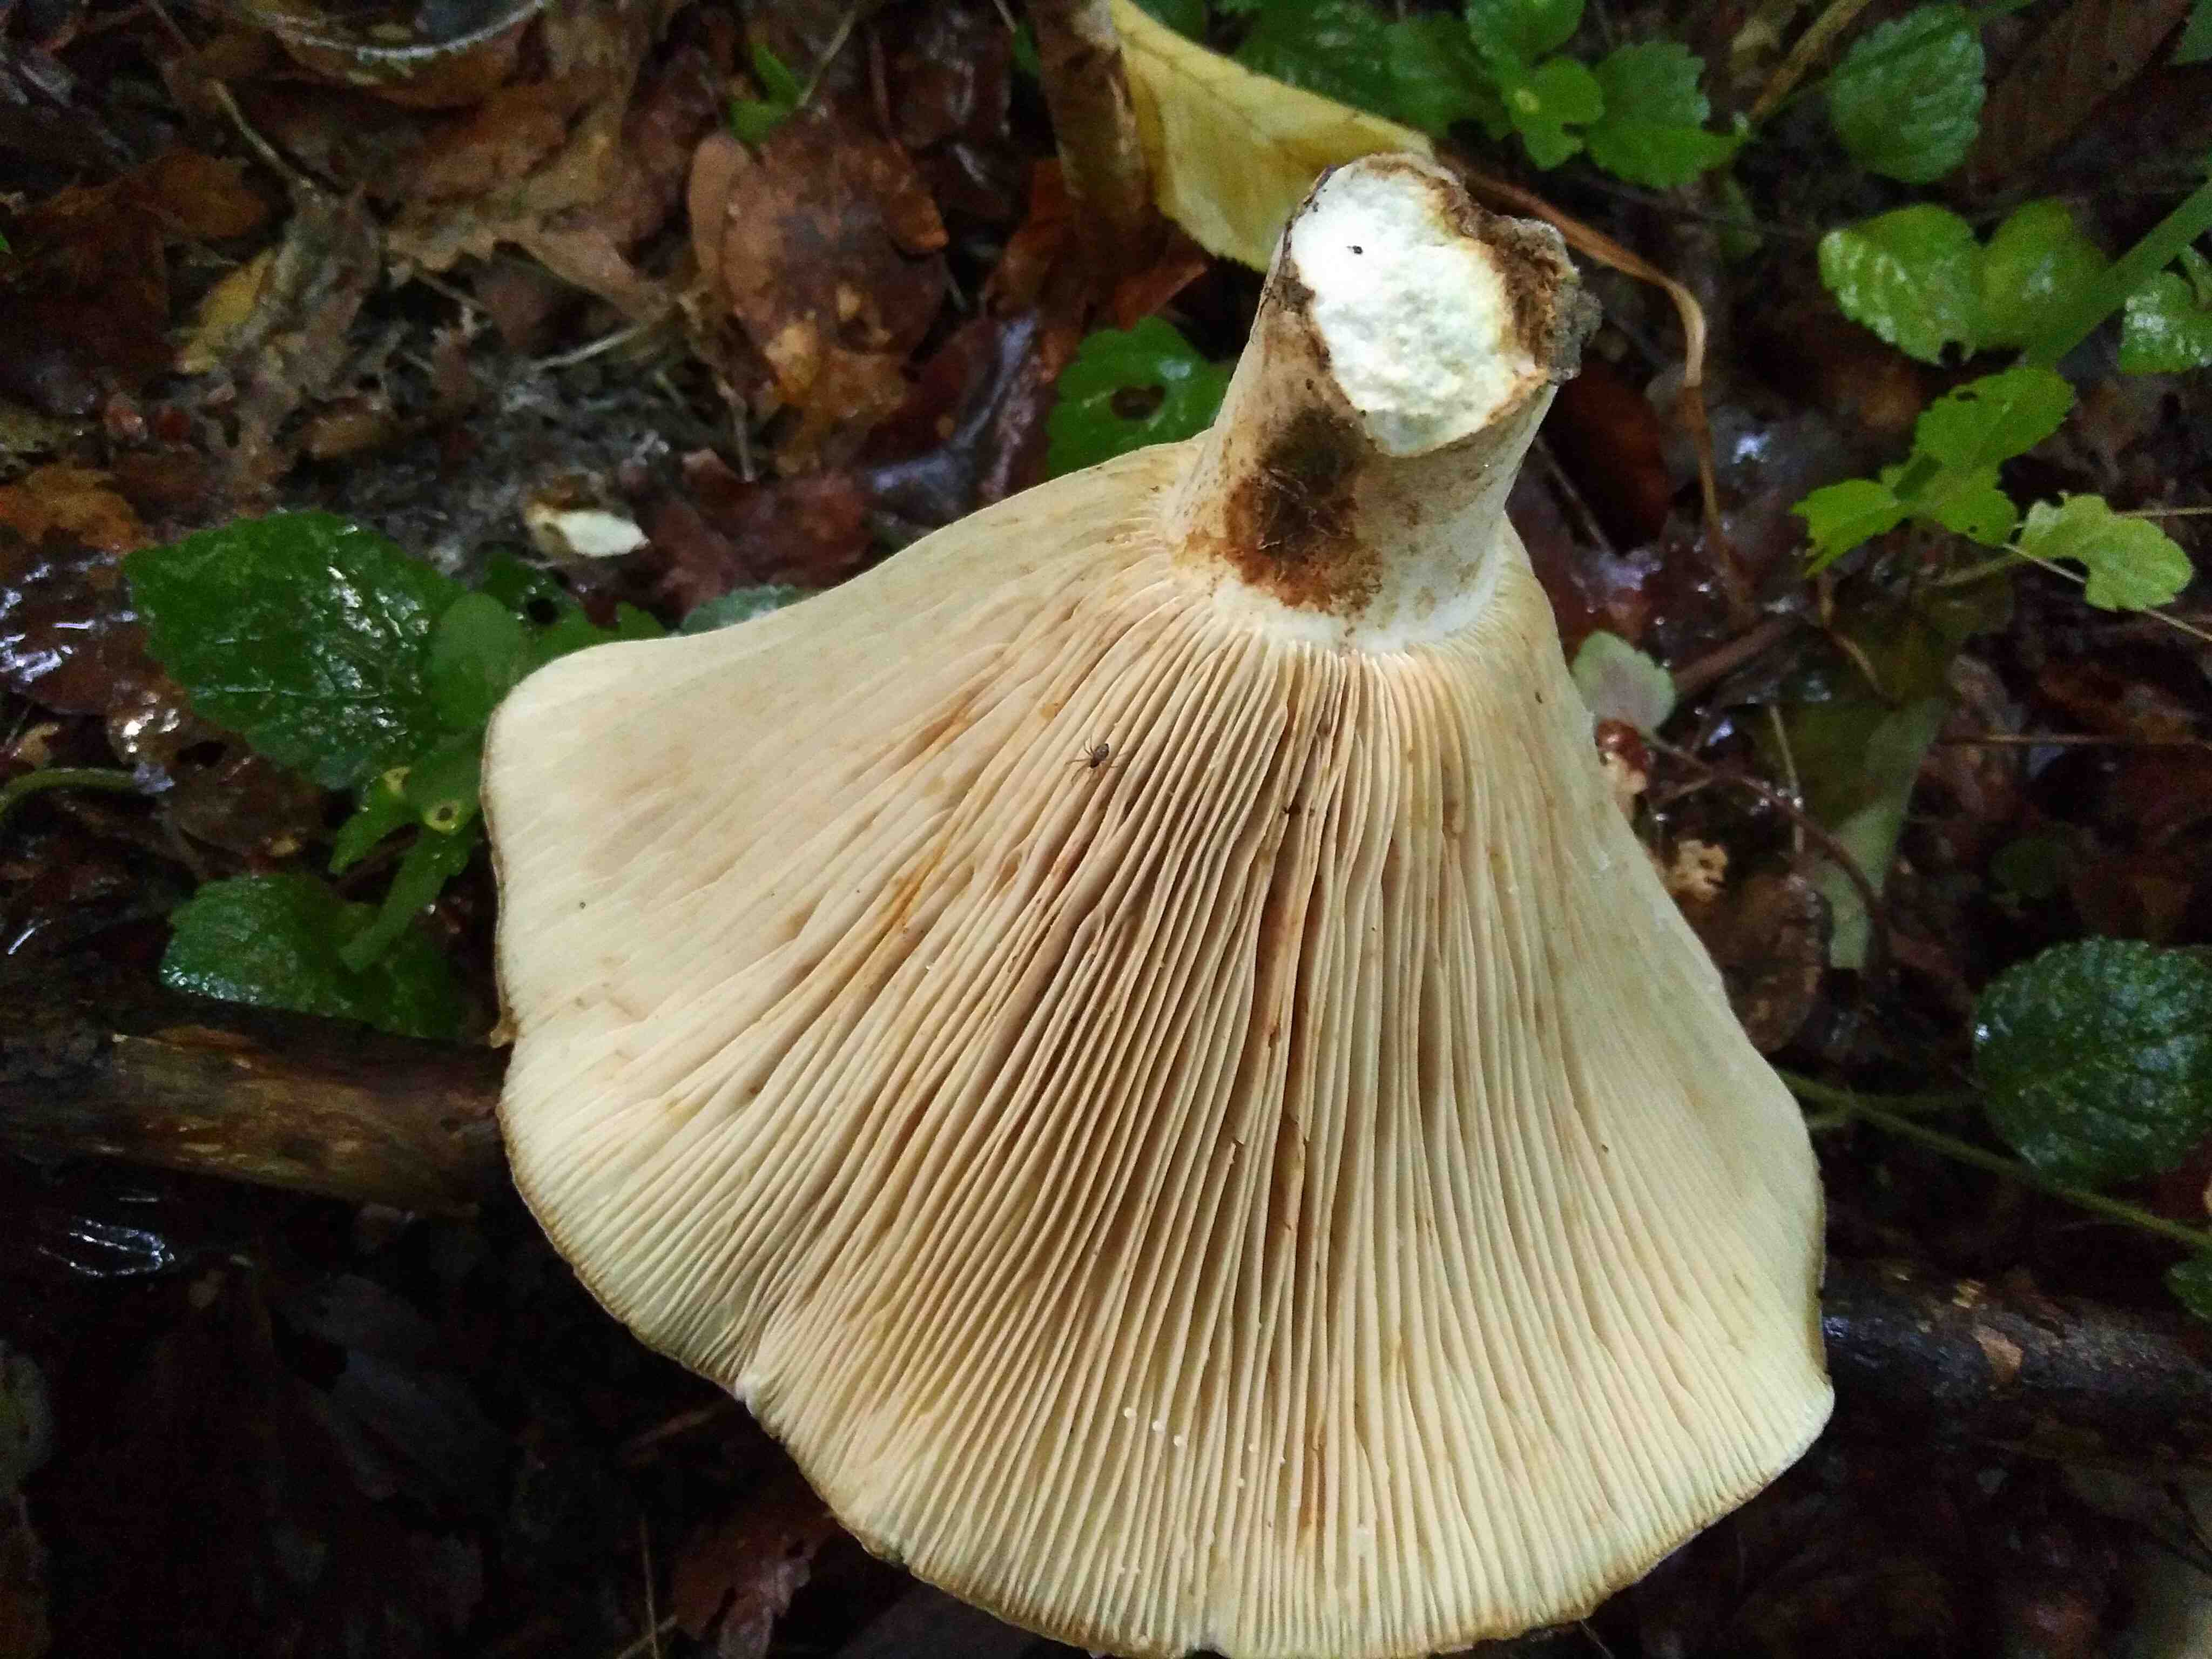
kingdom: Fungi
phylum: Basidiomycota
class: Agaricomycetes
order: Russulales
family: Russulaceae
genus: Lactifluus
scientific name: Lactifluus vellereus
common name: hvidfiltet mælkehat
